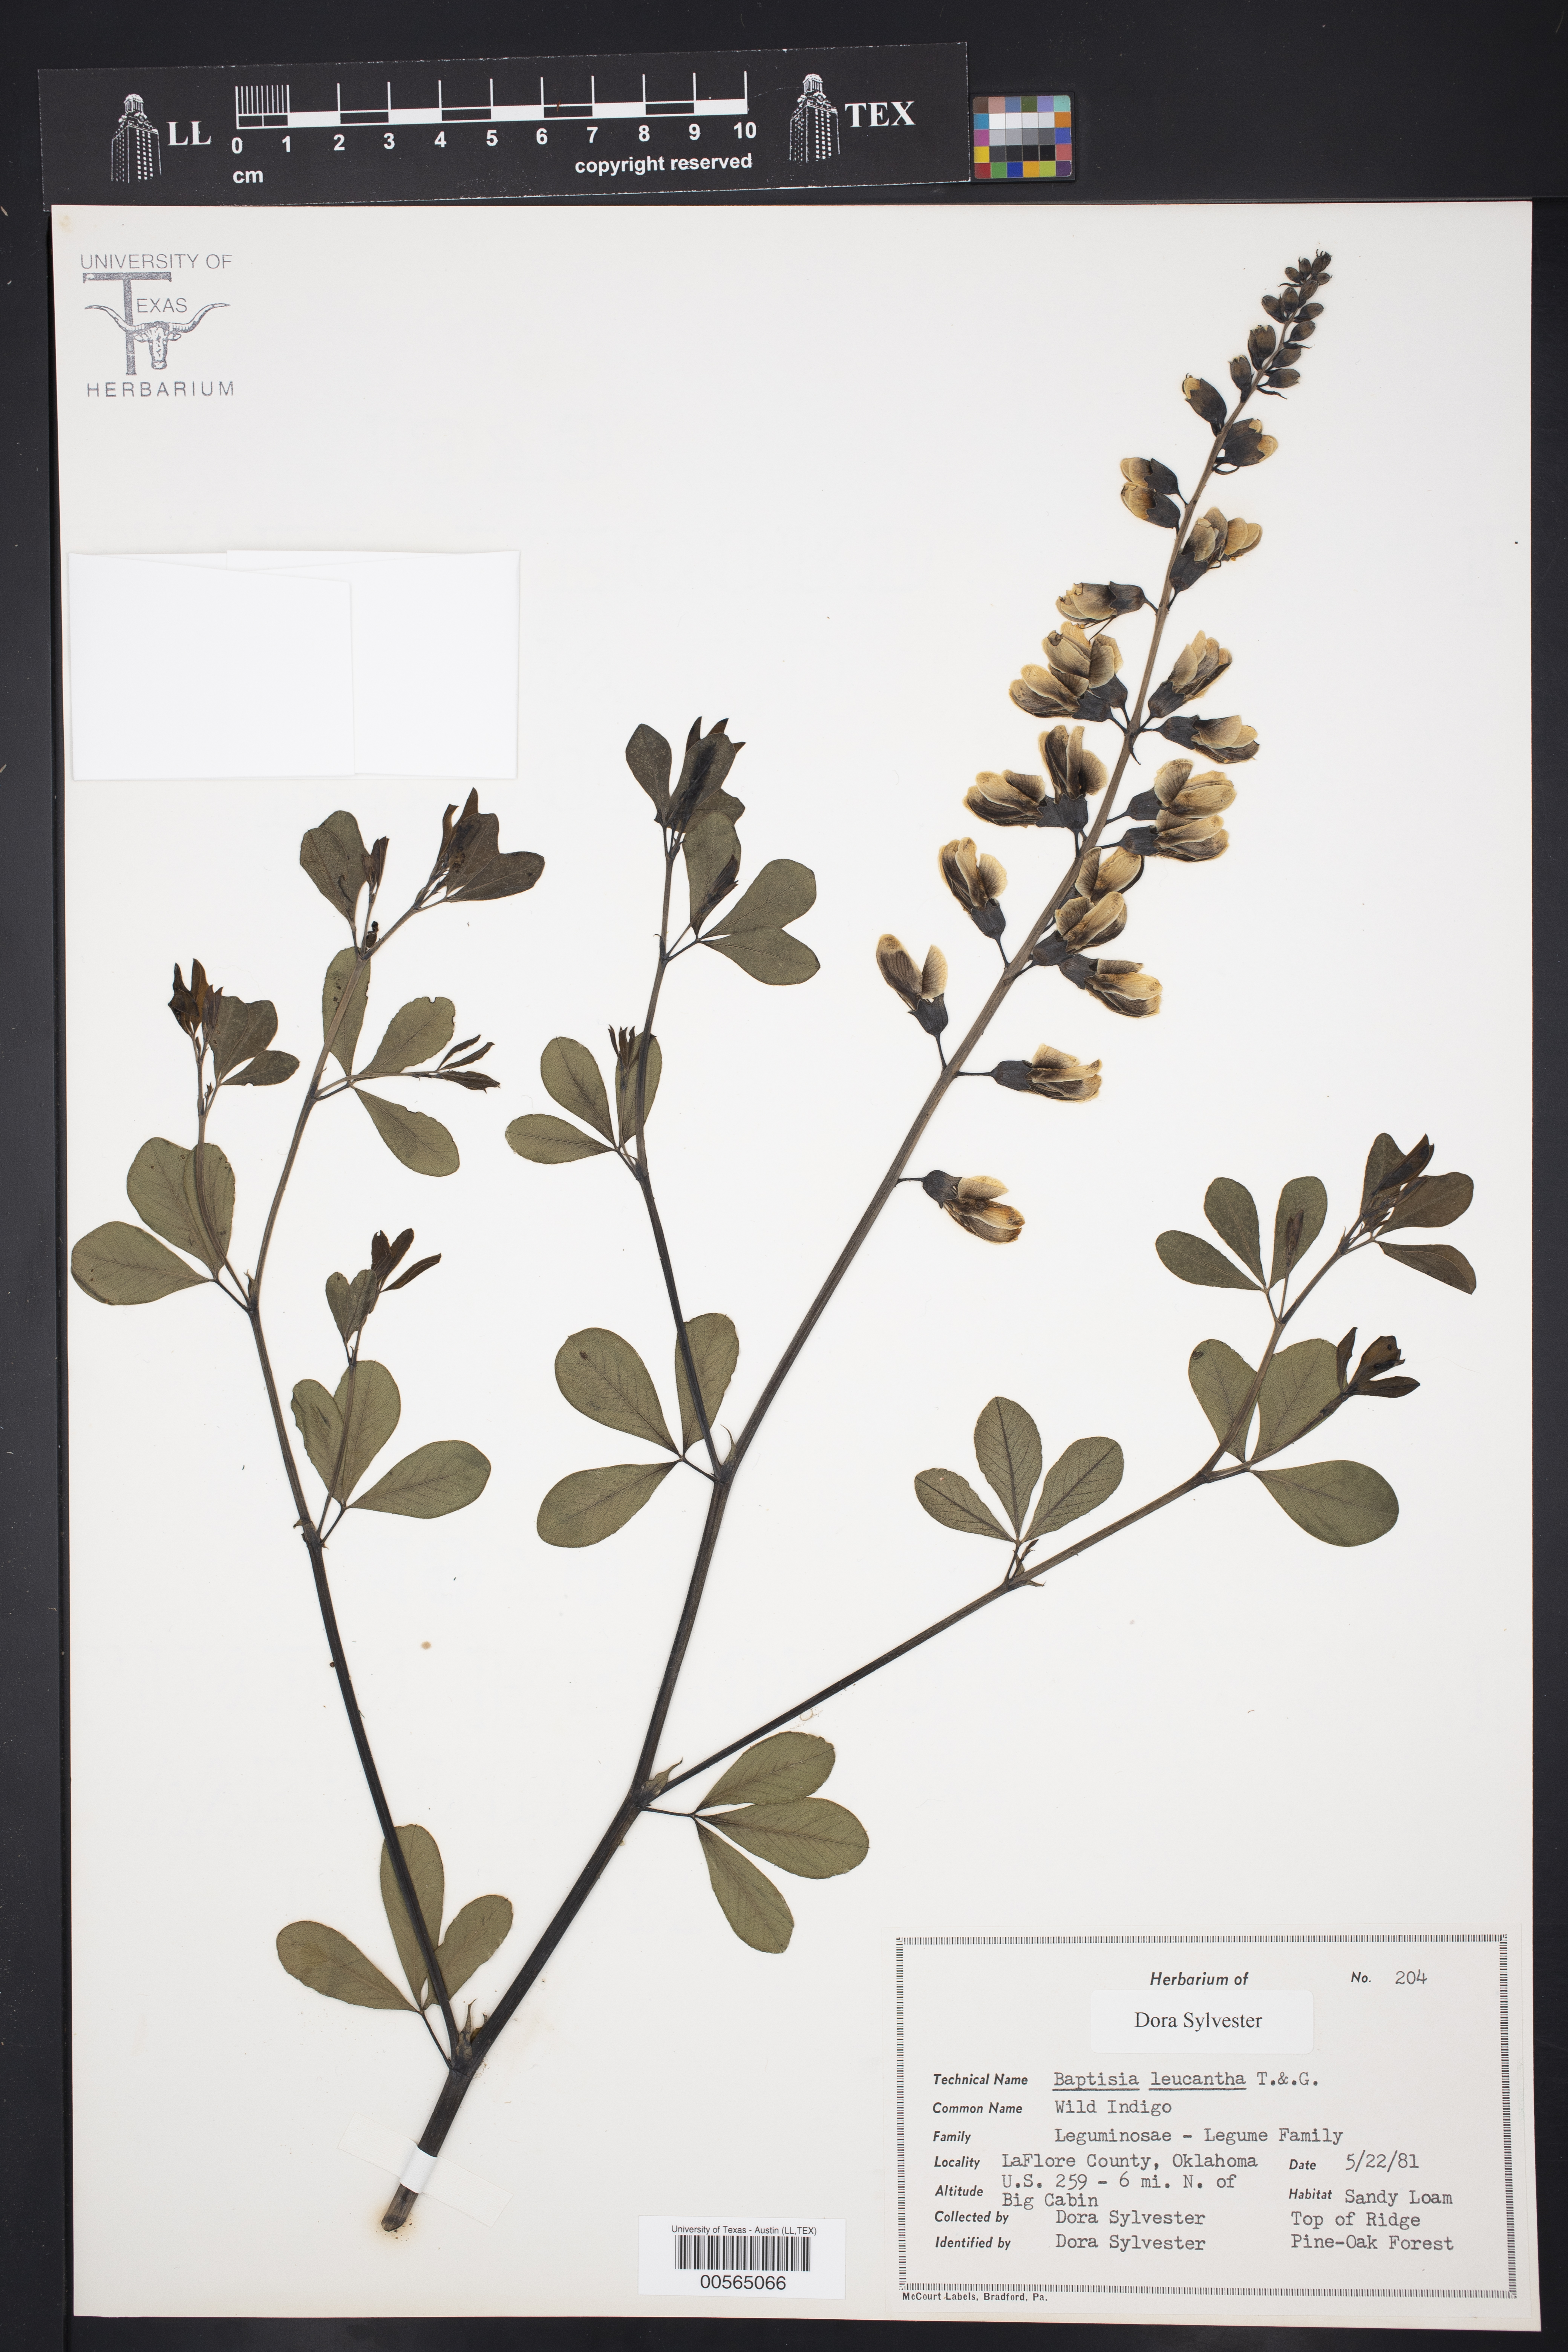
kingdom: Plantae
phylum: Tracheophyta
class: Magnoliopsida
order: Fabales
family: Fabaceae
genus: Baptisia
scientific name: Baptisia alba
